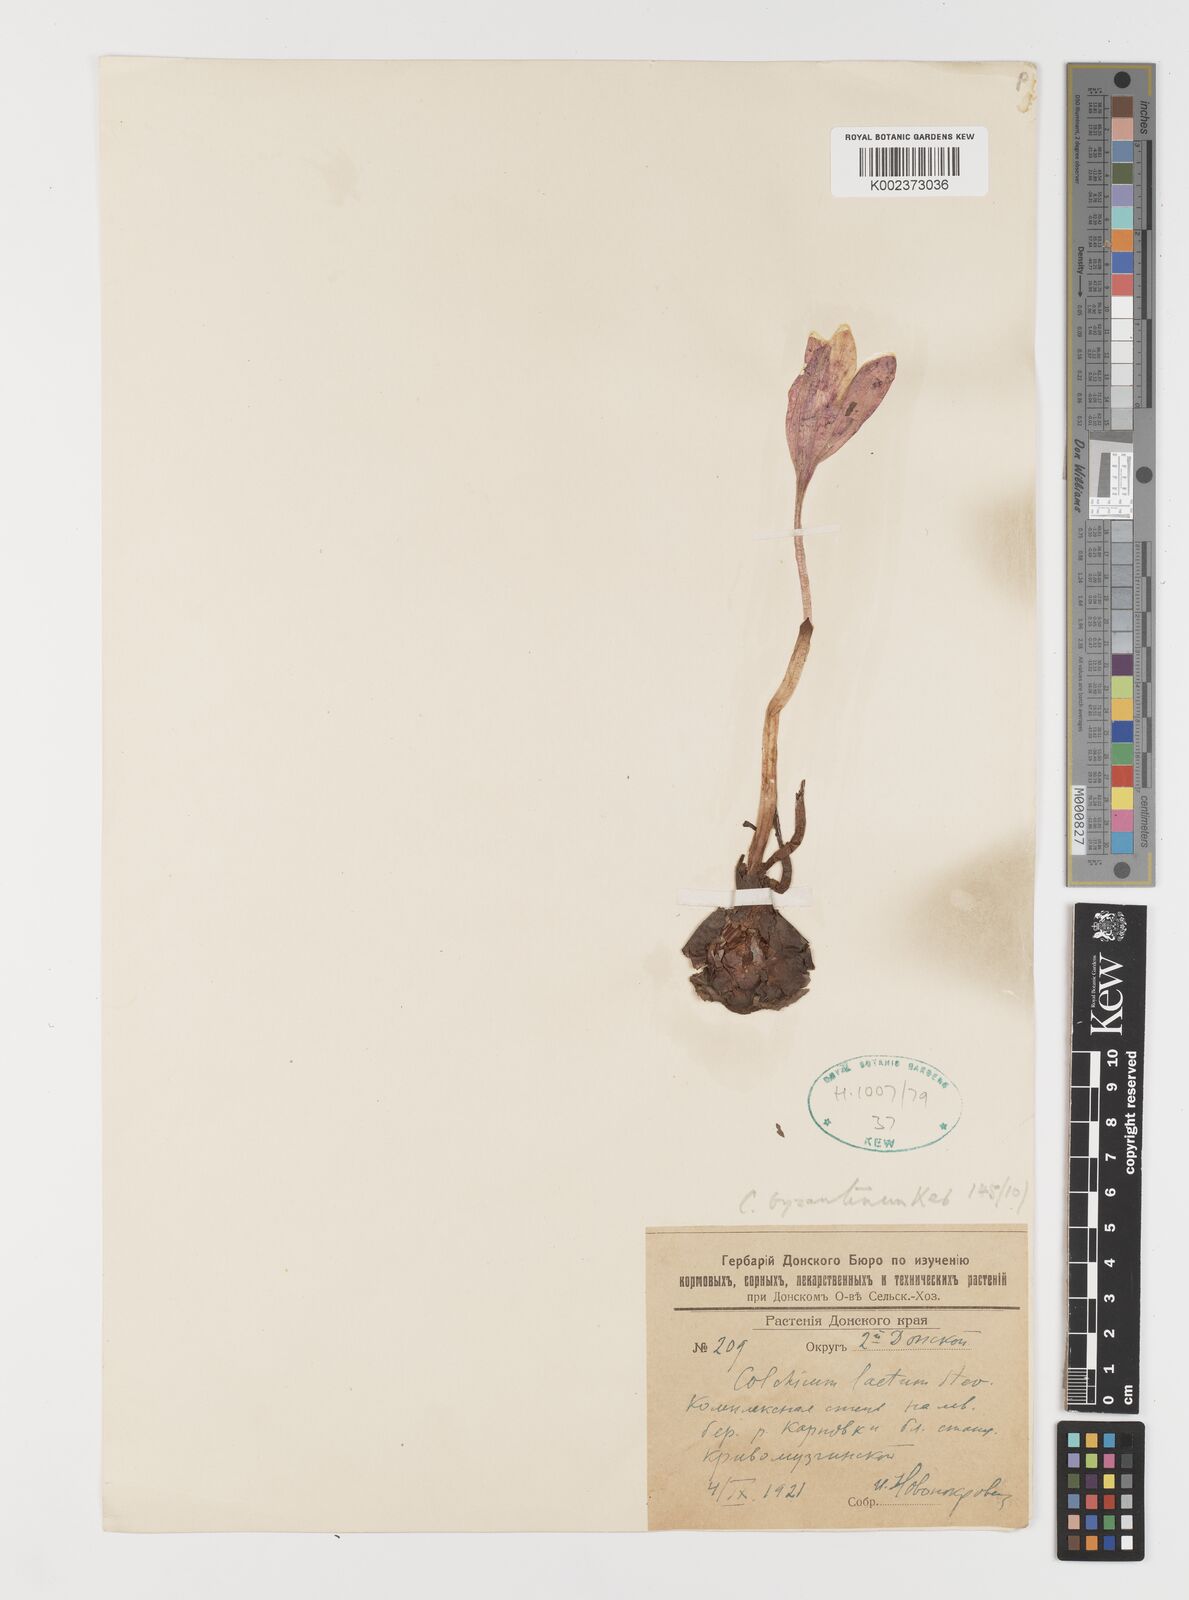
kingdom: Plantae
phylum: Tracheophyta
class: Liliopsida
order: Liliales
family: Colchicaceae
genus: Colchicum
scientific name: Colchicum laetum
